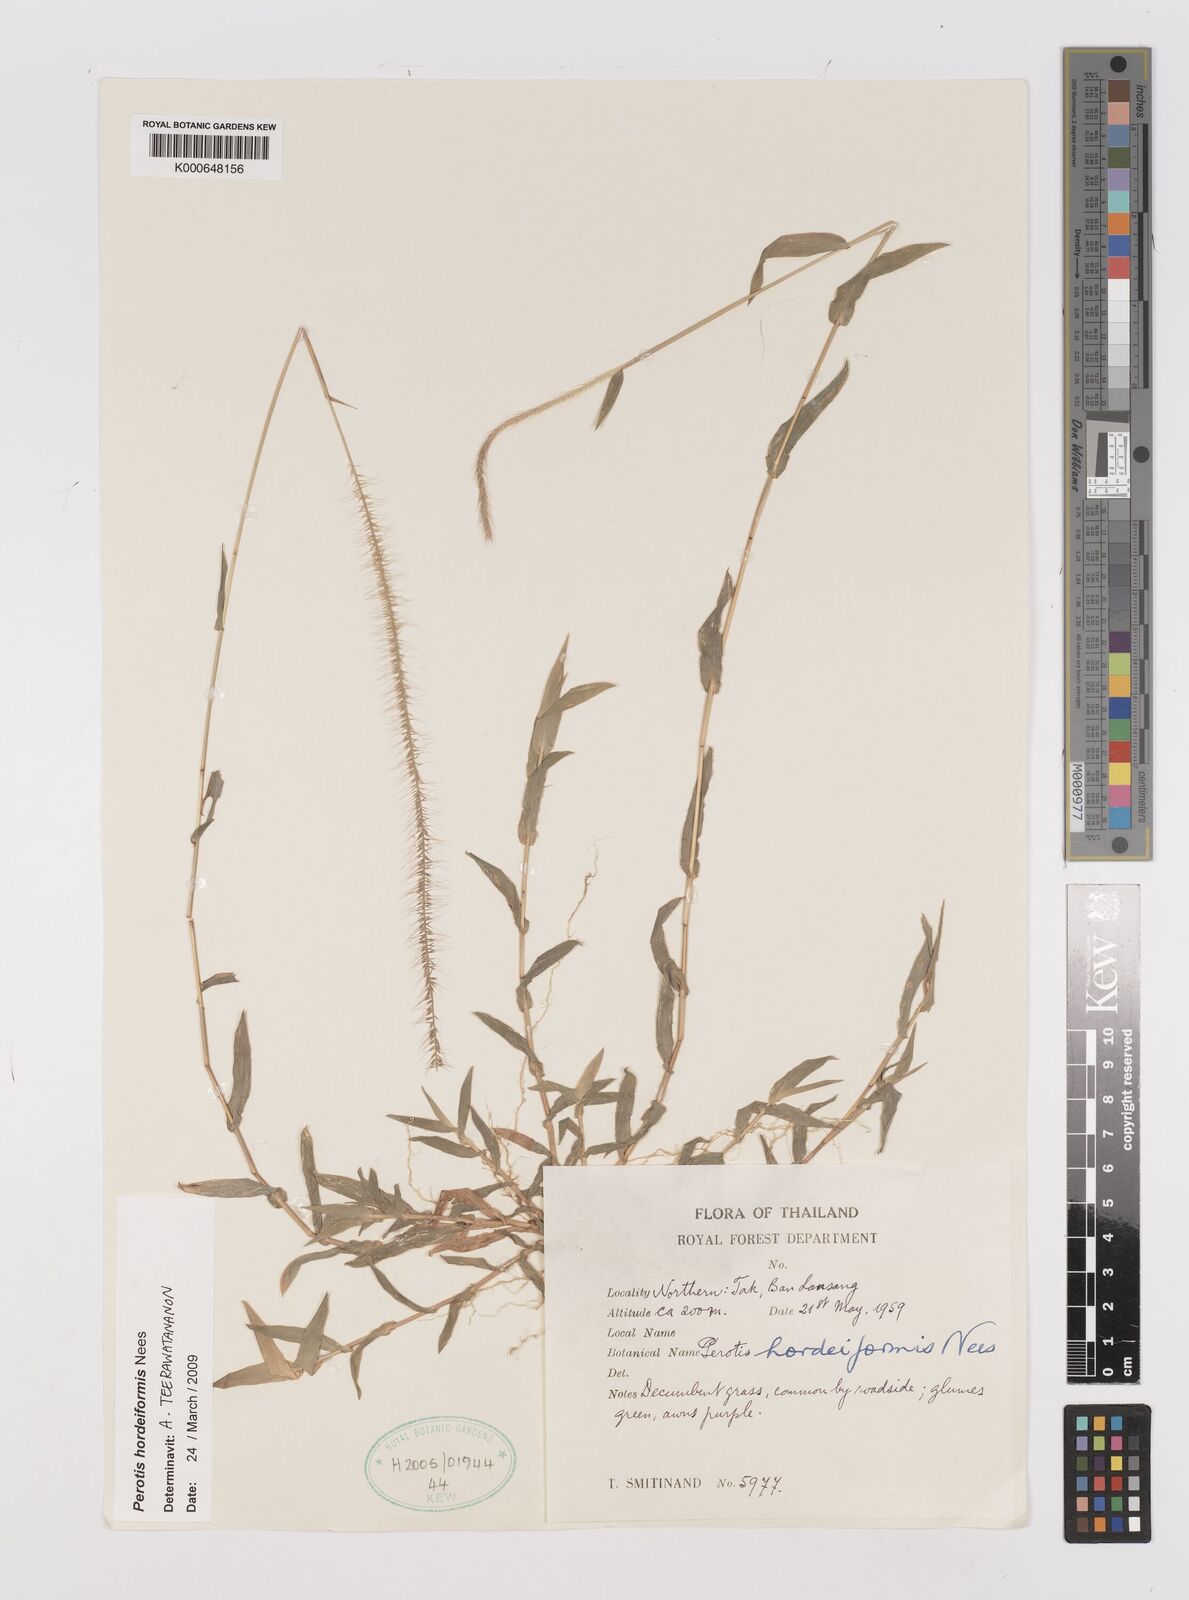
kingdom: Plantae
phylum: Tracheophyta
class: Liliopsida
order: Poales
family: Poaceae
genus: Perotis
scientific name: Perotis hordeiformis
